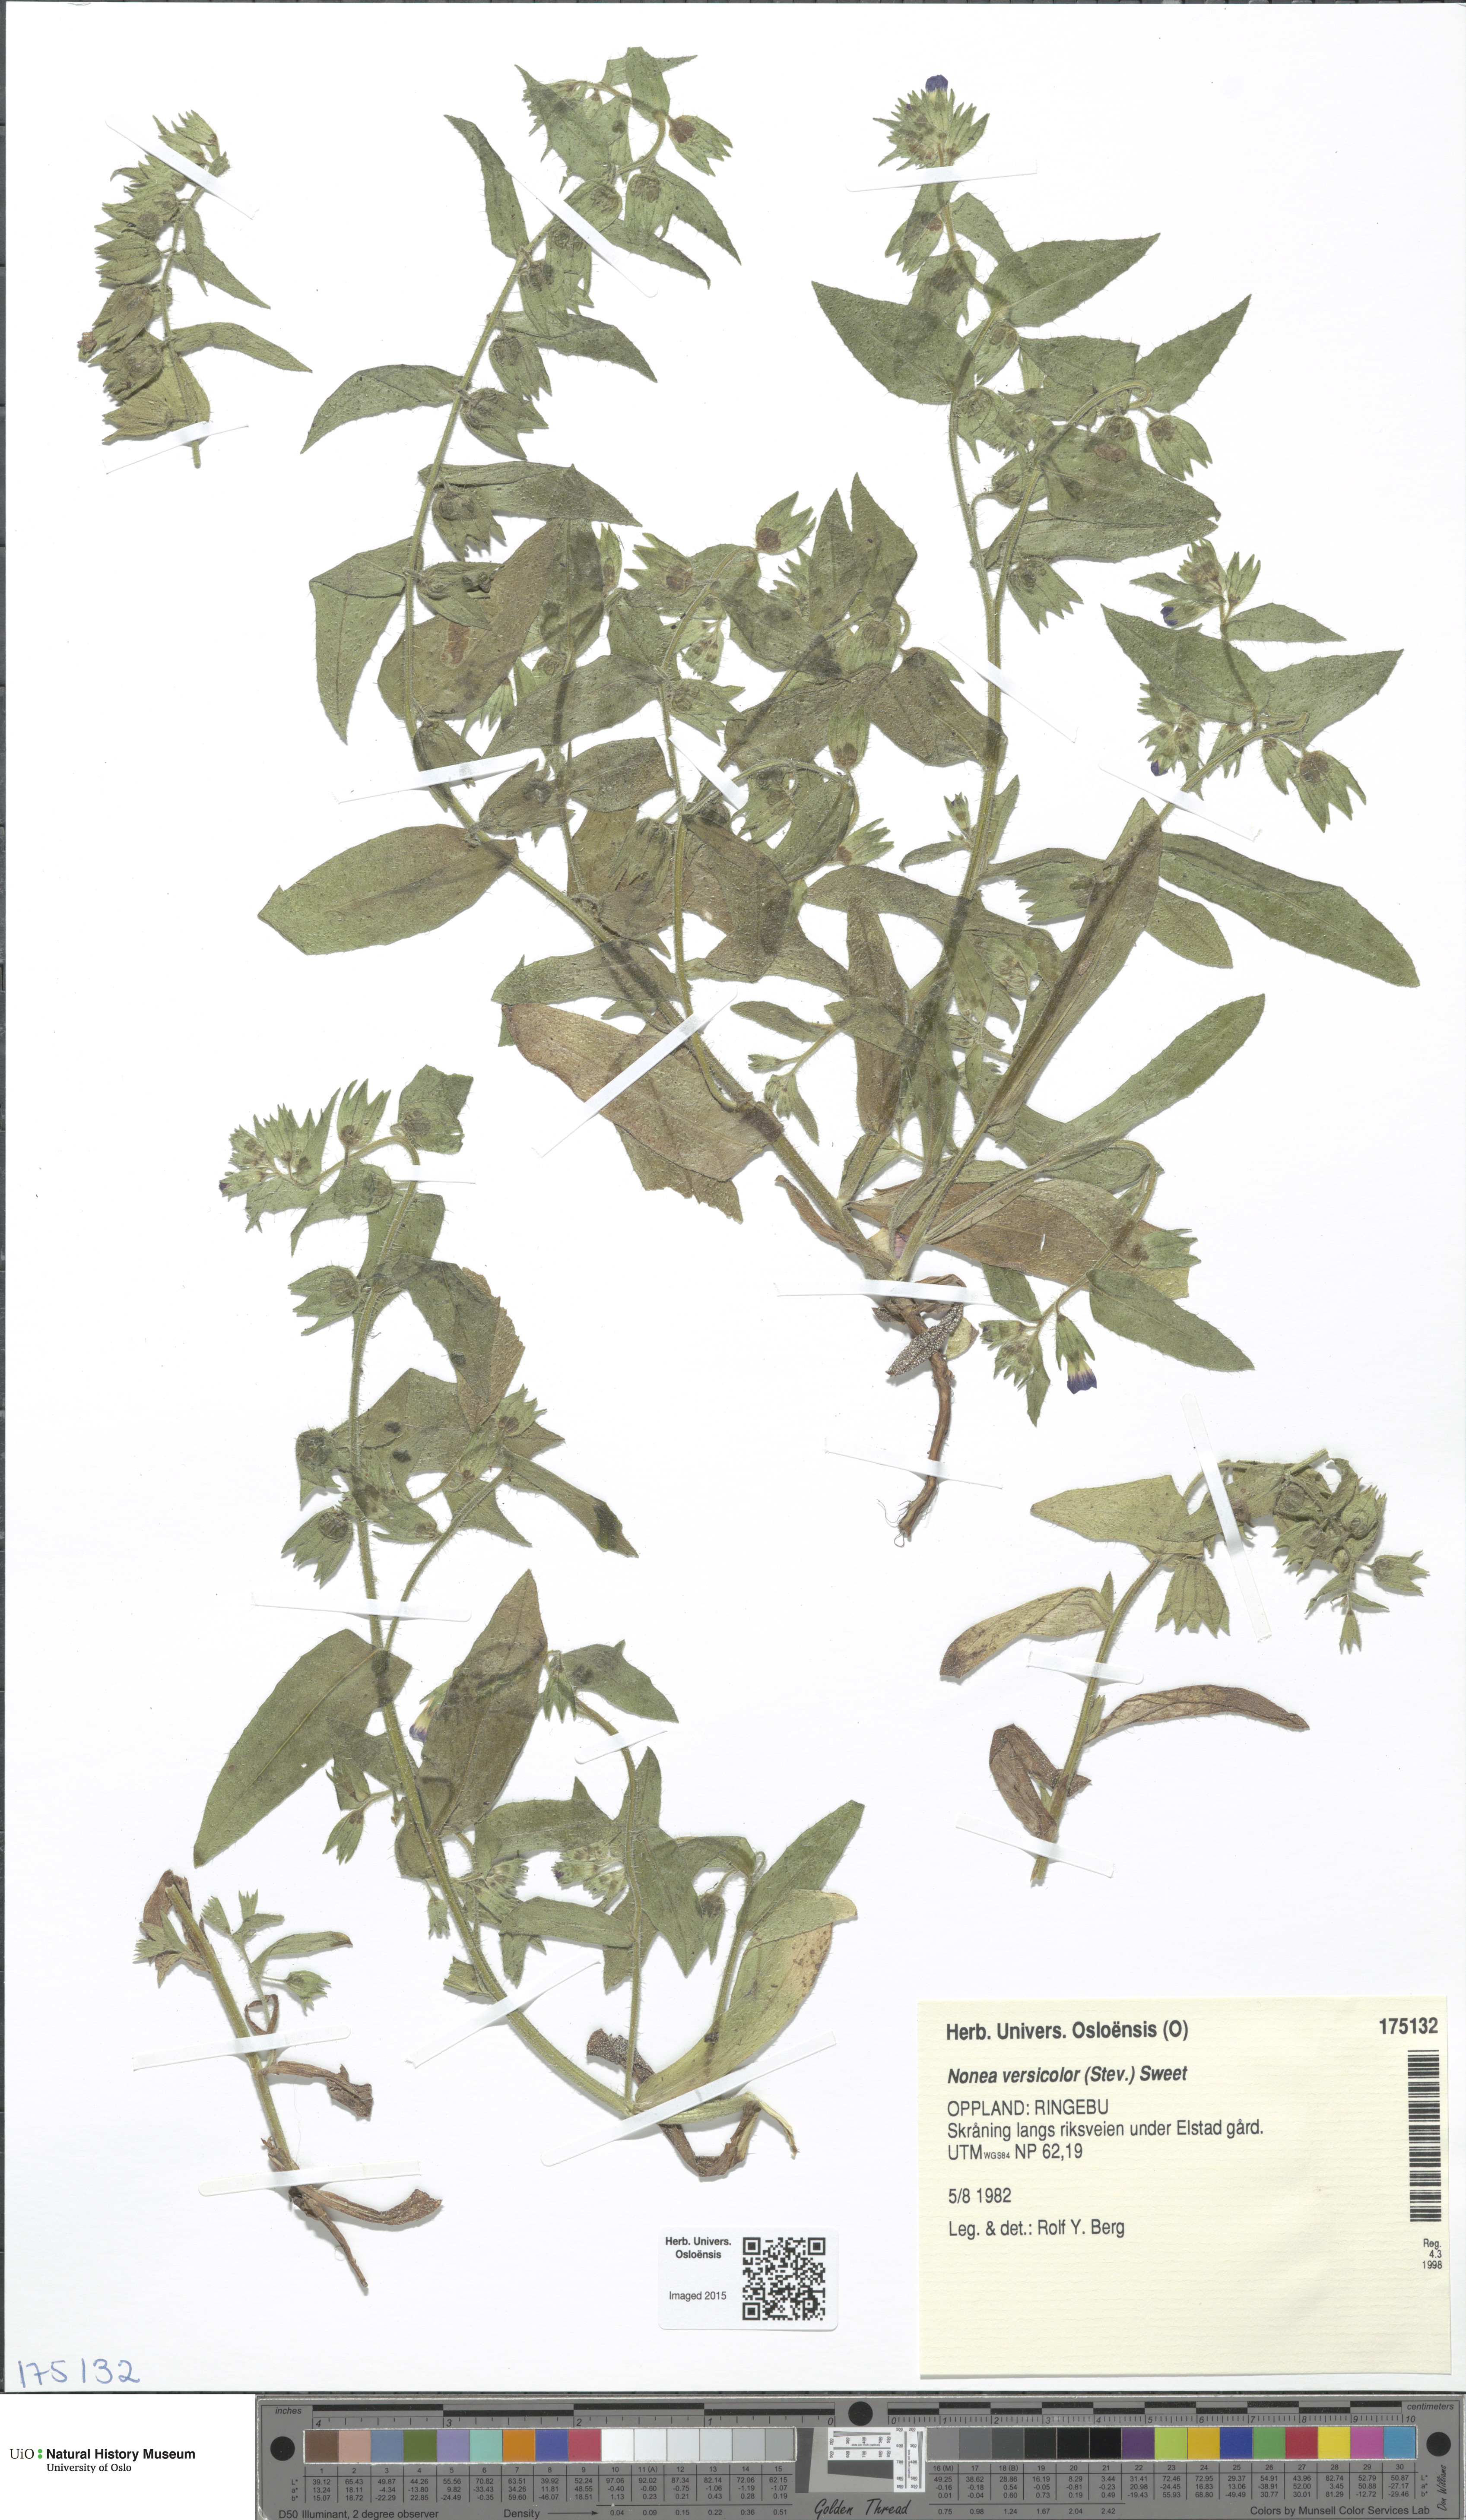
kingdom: Plantae
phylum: Tracheophyta
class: Magnoliopsida
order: Boraginales
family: Boraginaceae
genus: Nonea
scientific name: Nonea versicolor
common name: Varied monkswort
